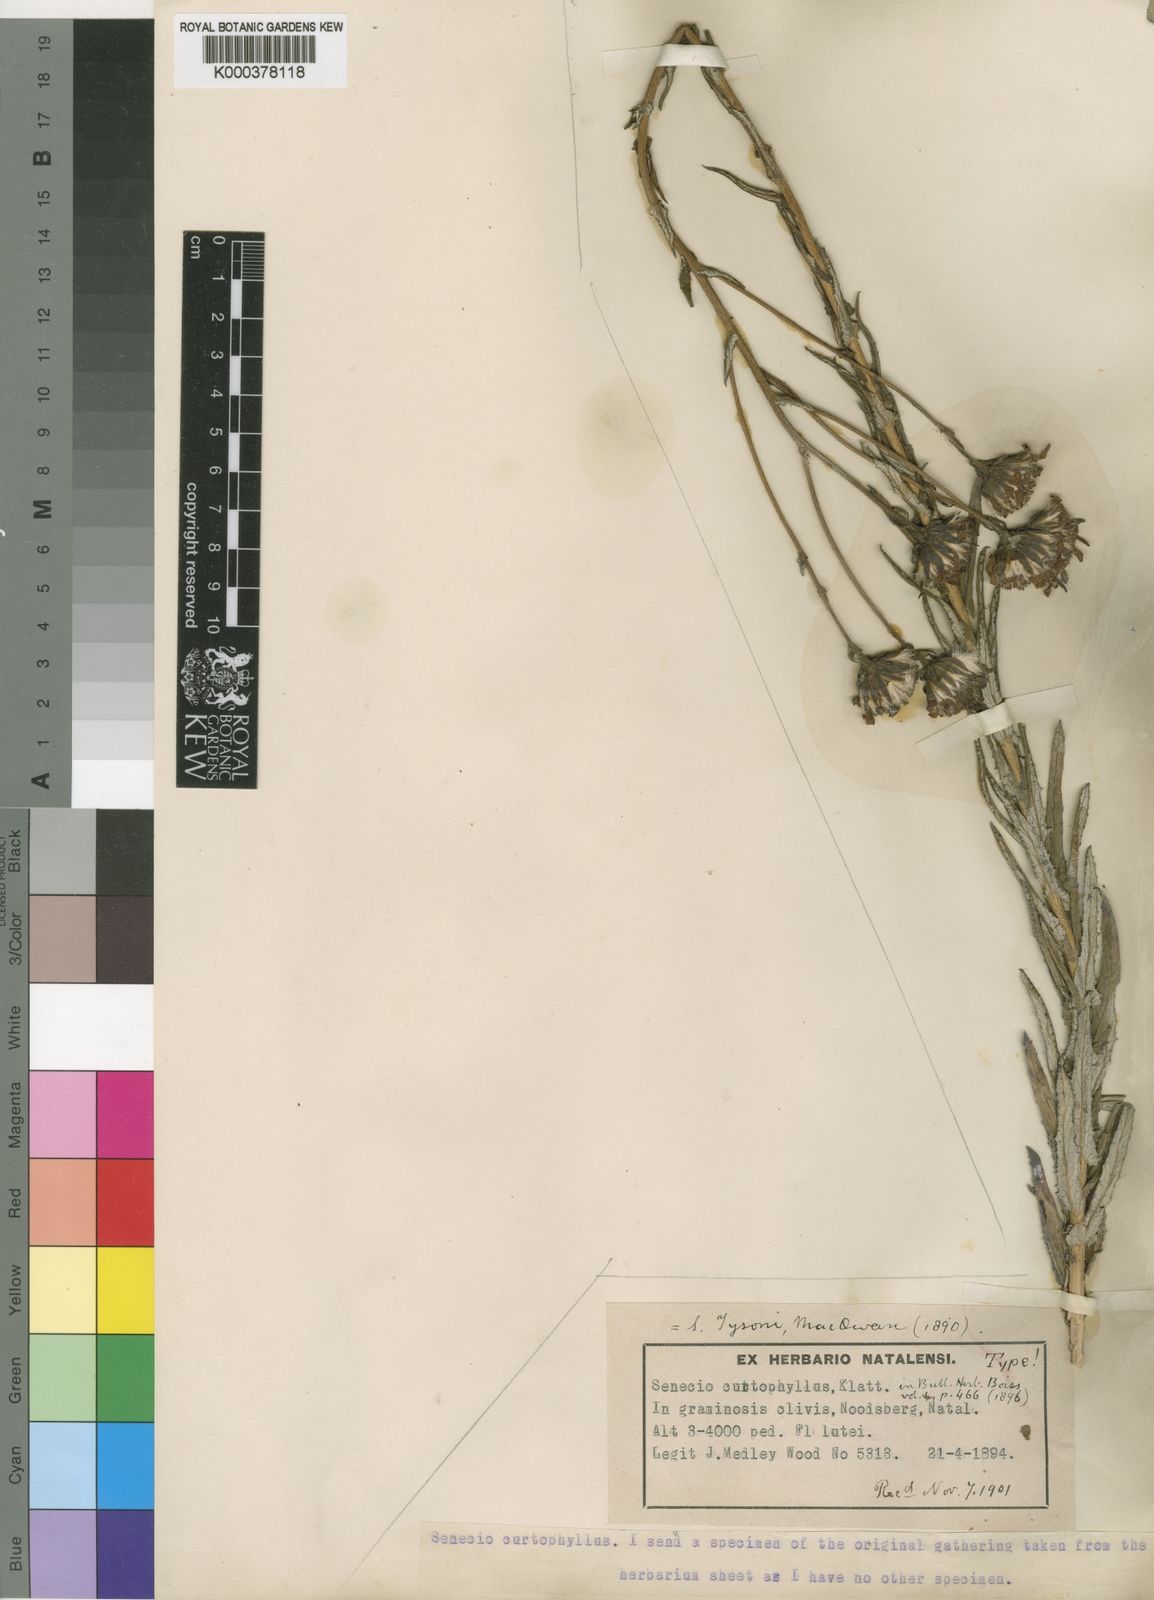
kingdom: Plantae
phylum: Tracheophyta
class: Magnoliopsida
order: Asterales
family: Asteraceae
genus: Senecio
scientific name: Senecio rigidus
